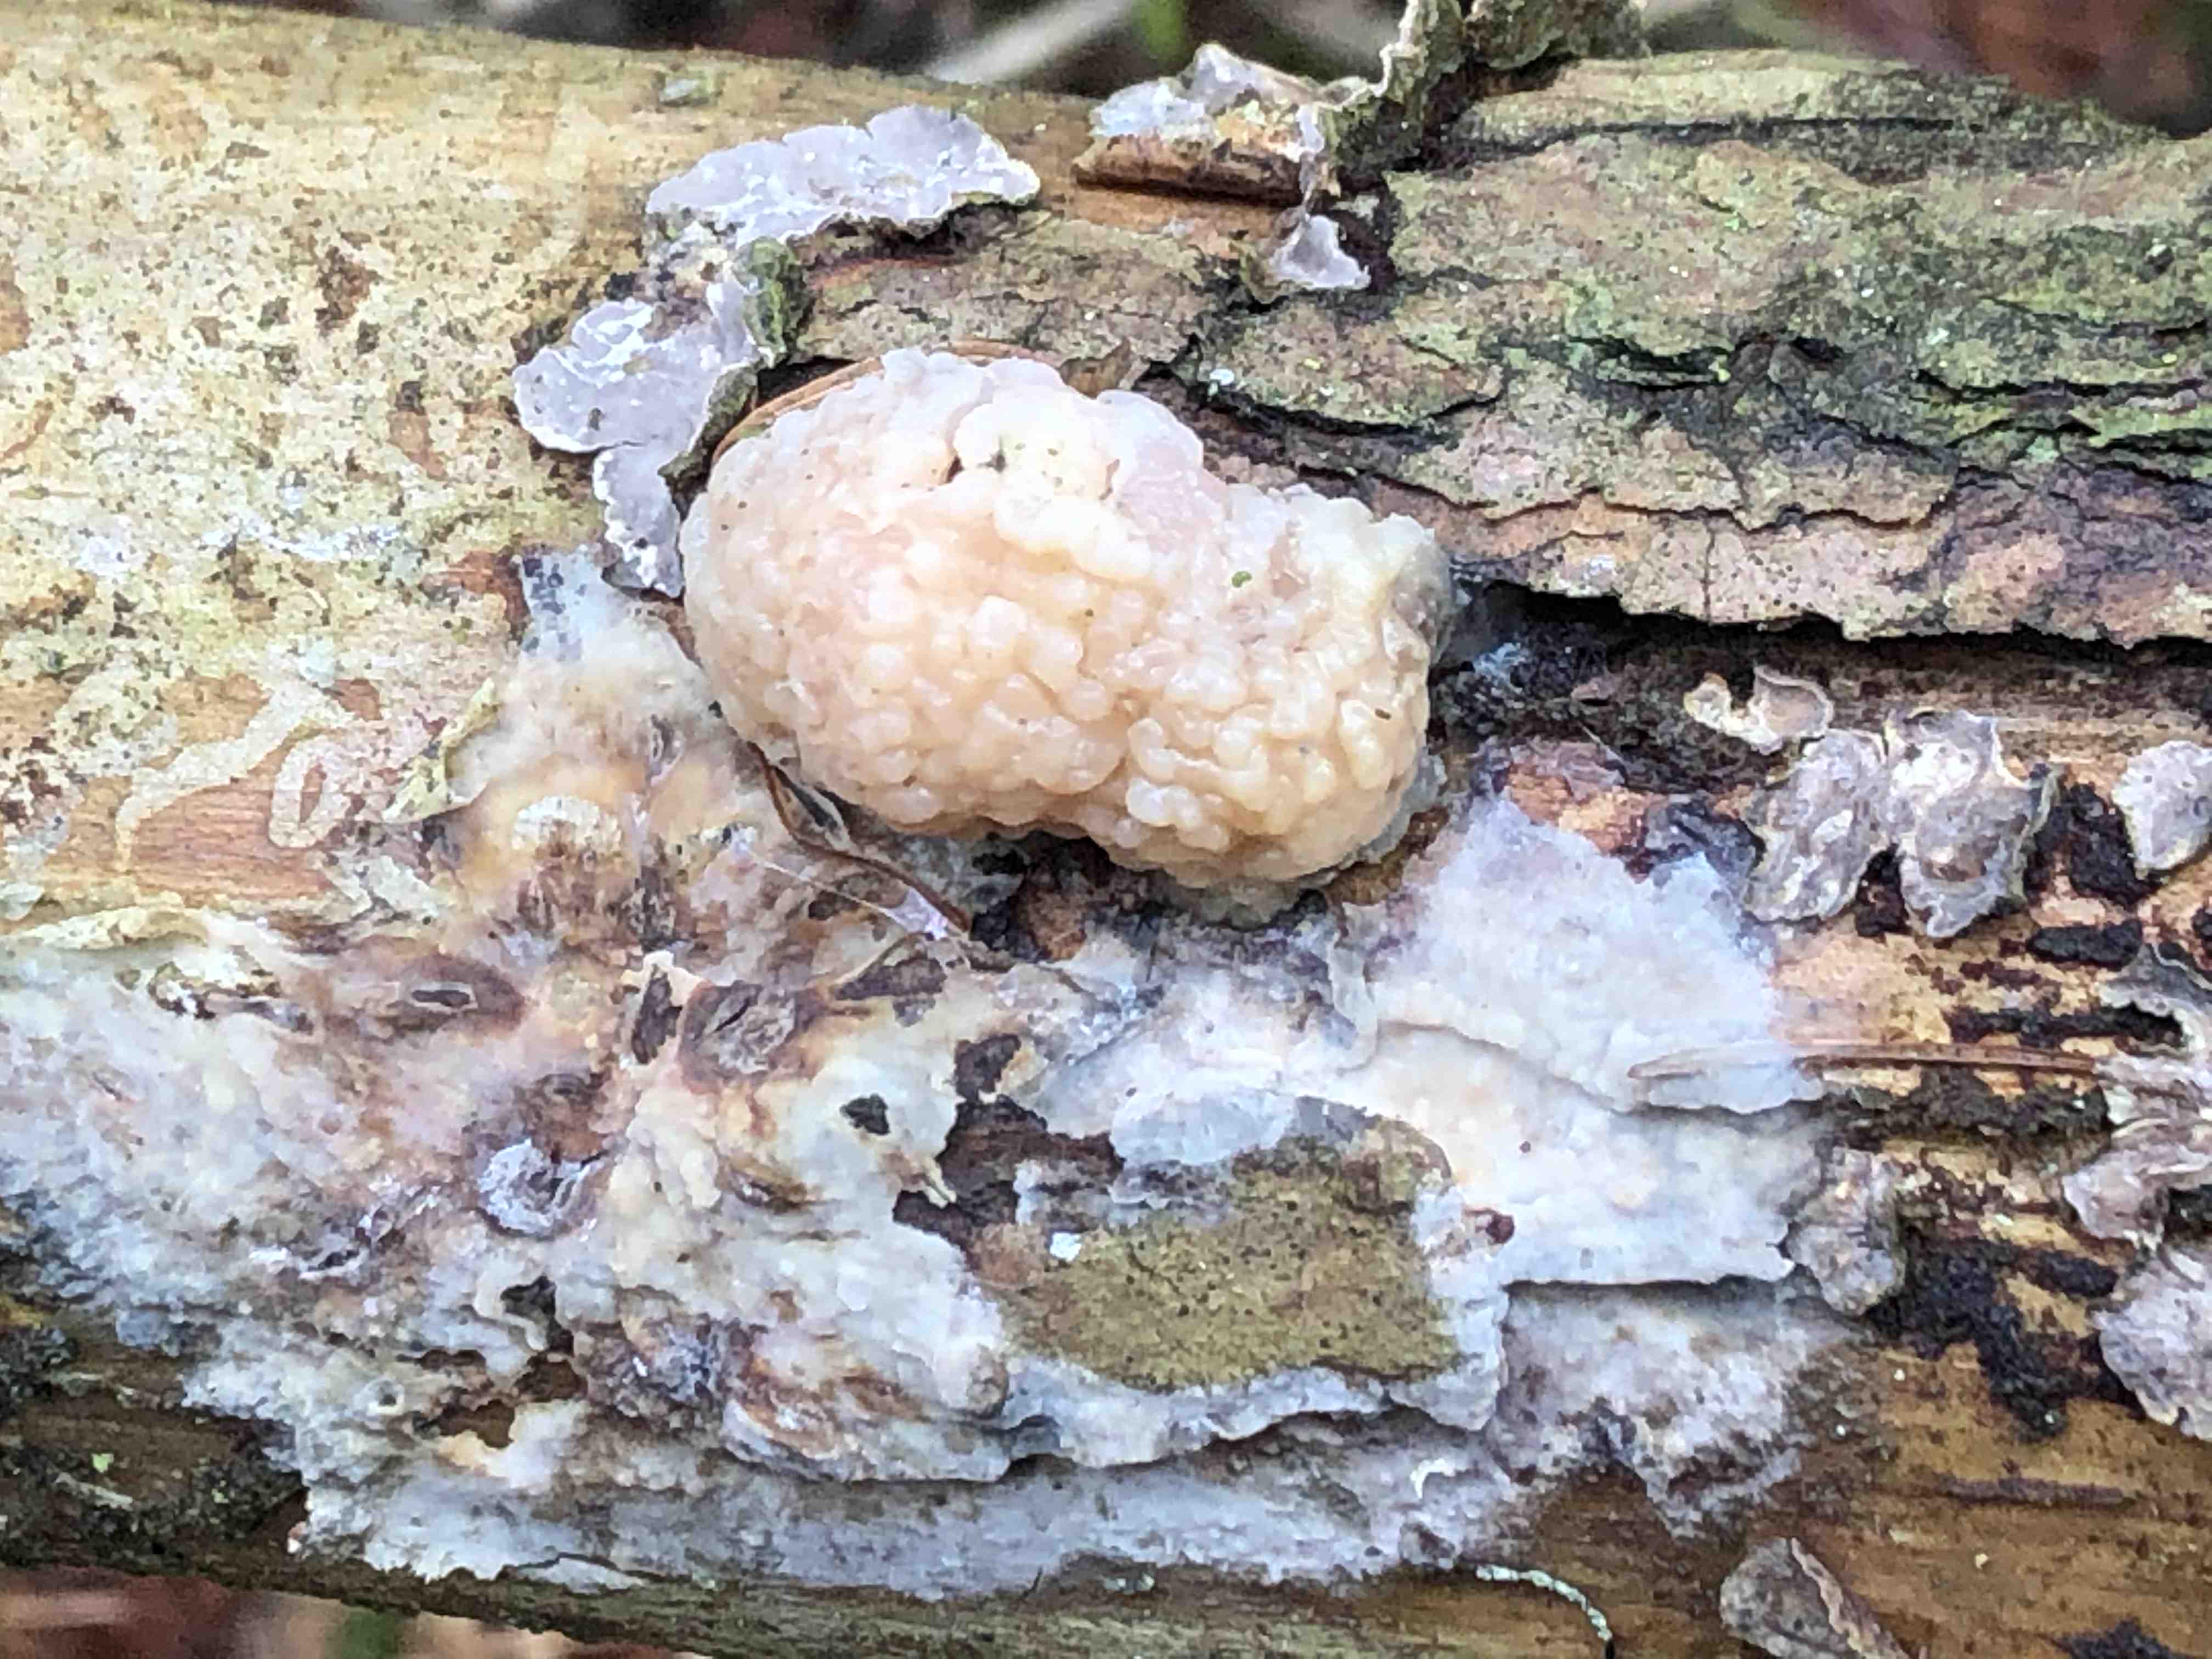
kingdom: Fungi
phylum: Basidiomycota
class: Tremellomycetes
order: Tremellales
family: Naemateliaceae
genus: Naematelia
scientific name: Naematelia encephala
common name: fyrre-bævresvamp
